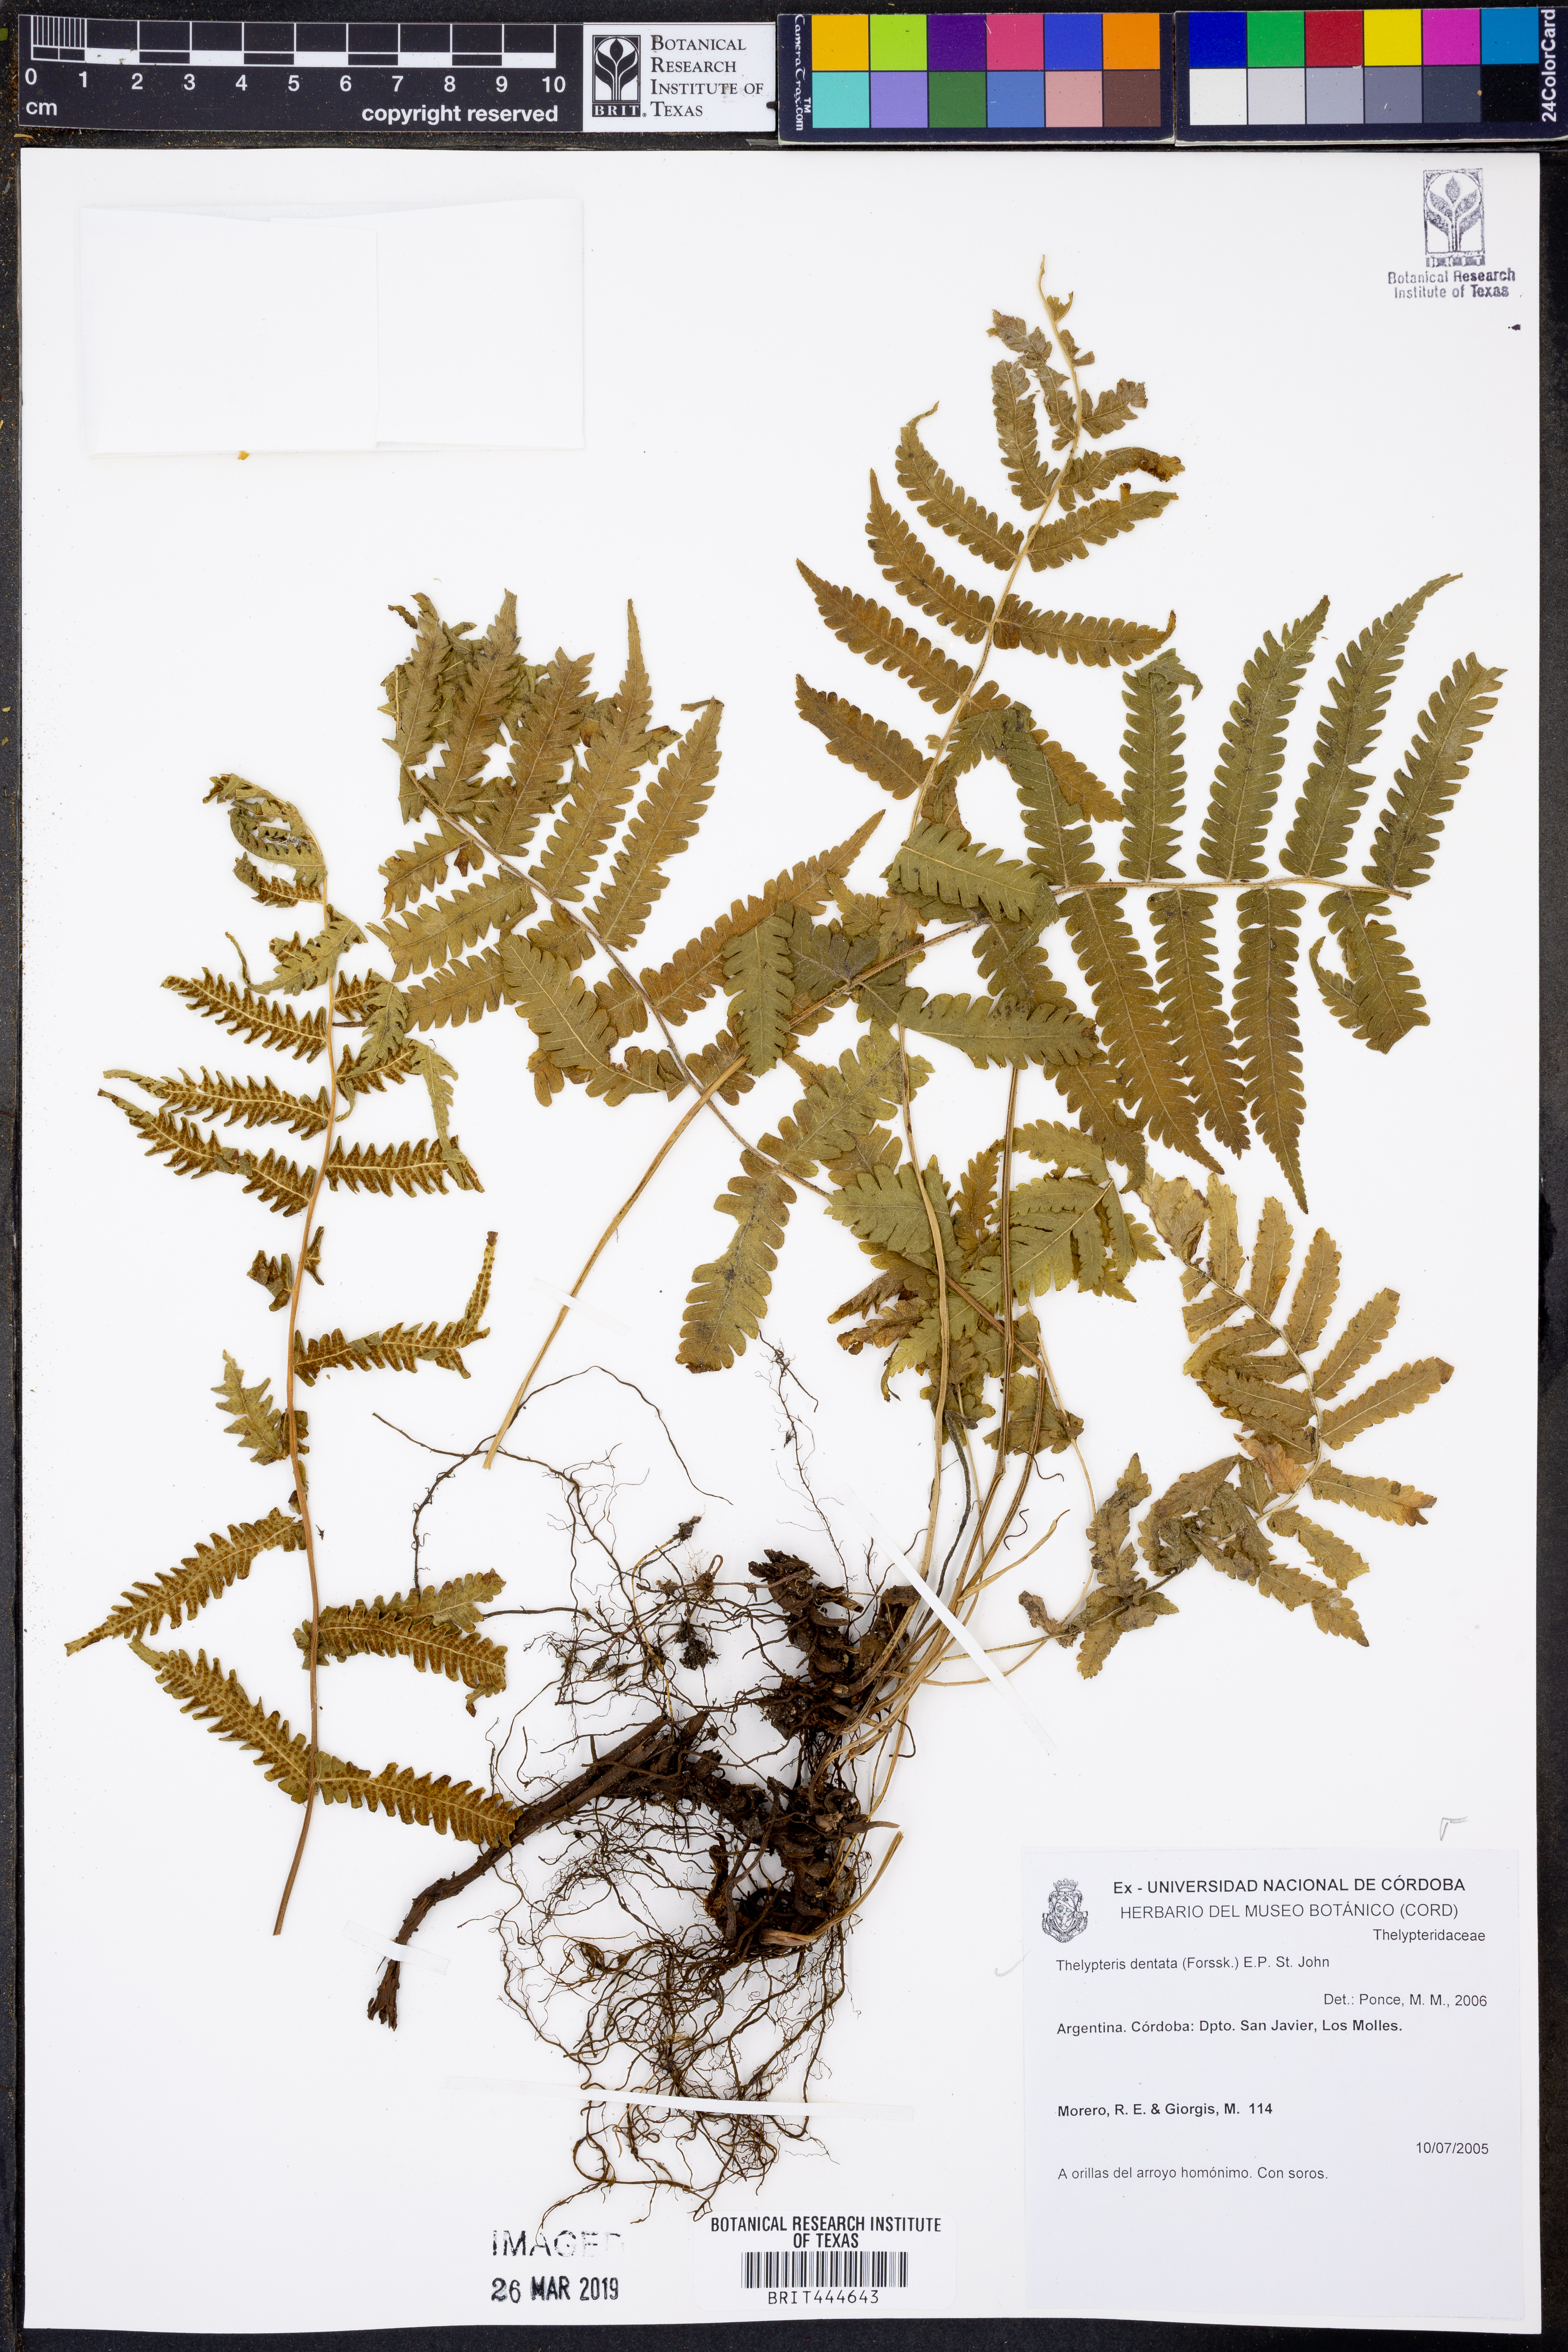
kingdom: Plantae
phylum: Tracheophyta
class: Polypodiopsida
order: Polypodiales
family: Thelypteridaceae
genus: Christella
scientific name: Christella dentata
